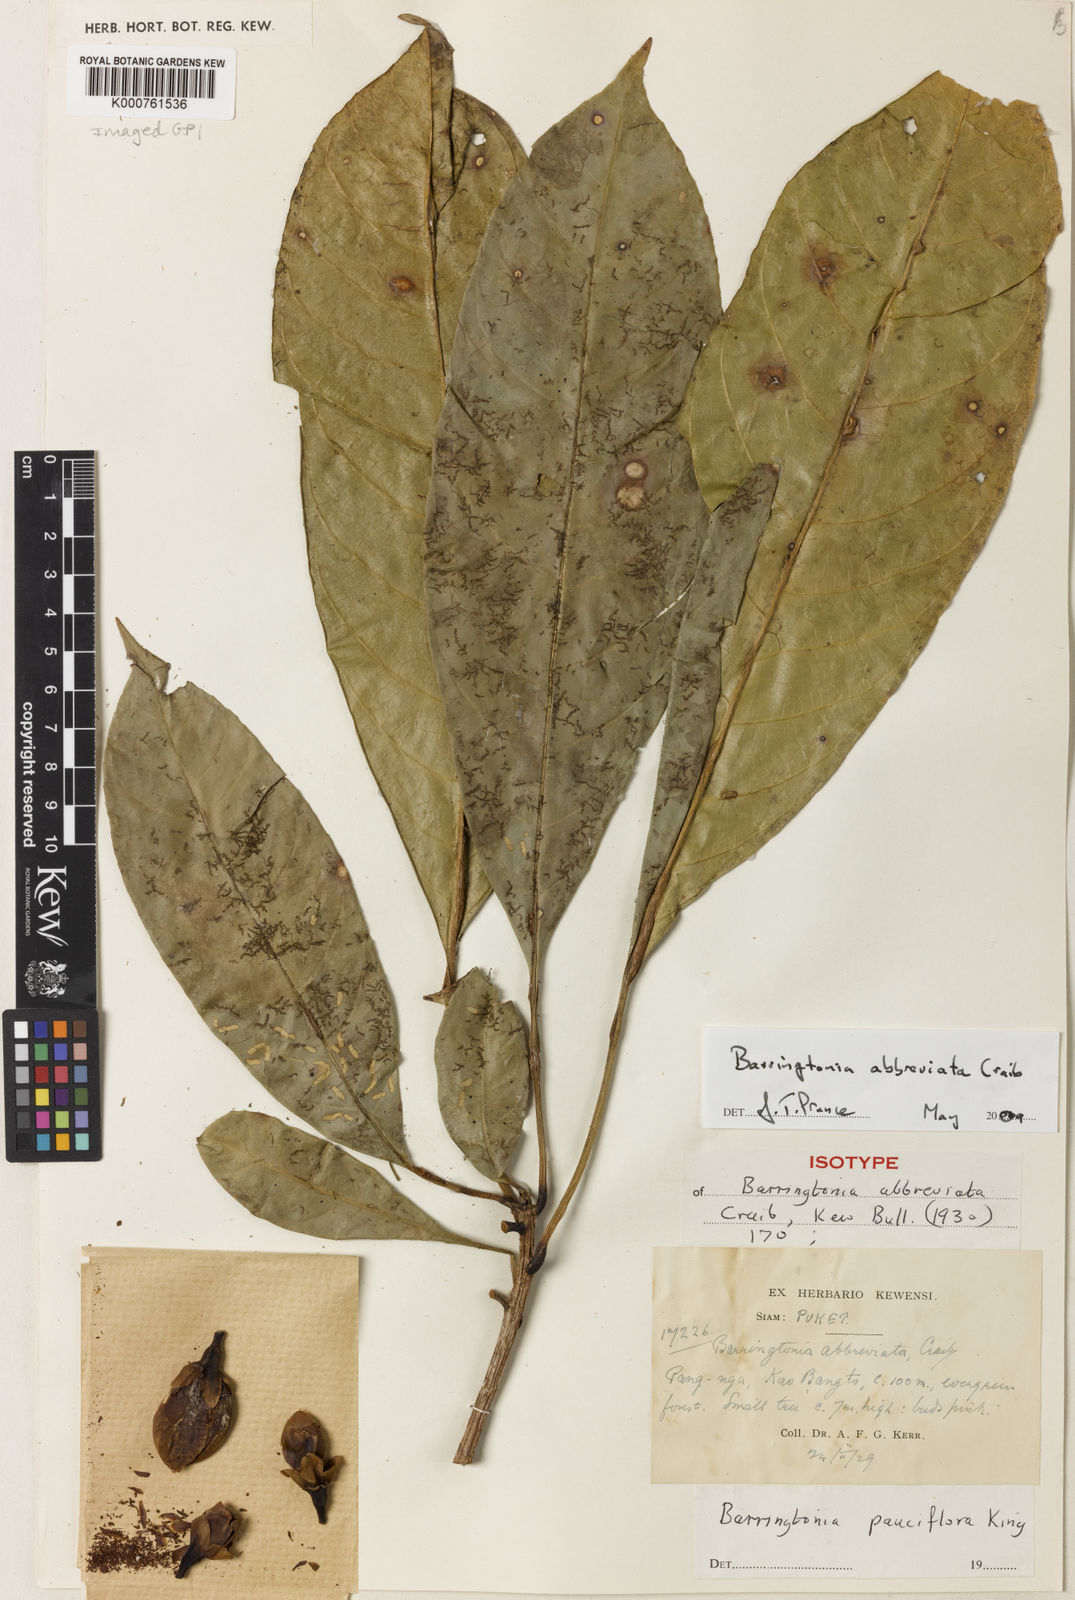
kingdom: Plantae
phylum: Tracheophyta
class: Magnoliopsida
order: Ericales
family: Lecythidaceae
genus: Barringtonia
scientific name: Barringtonia pauciflora
